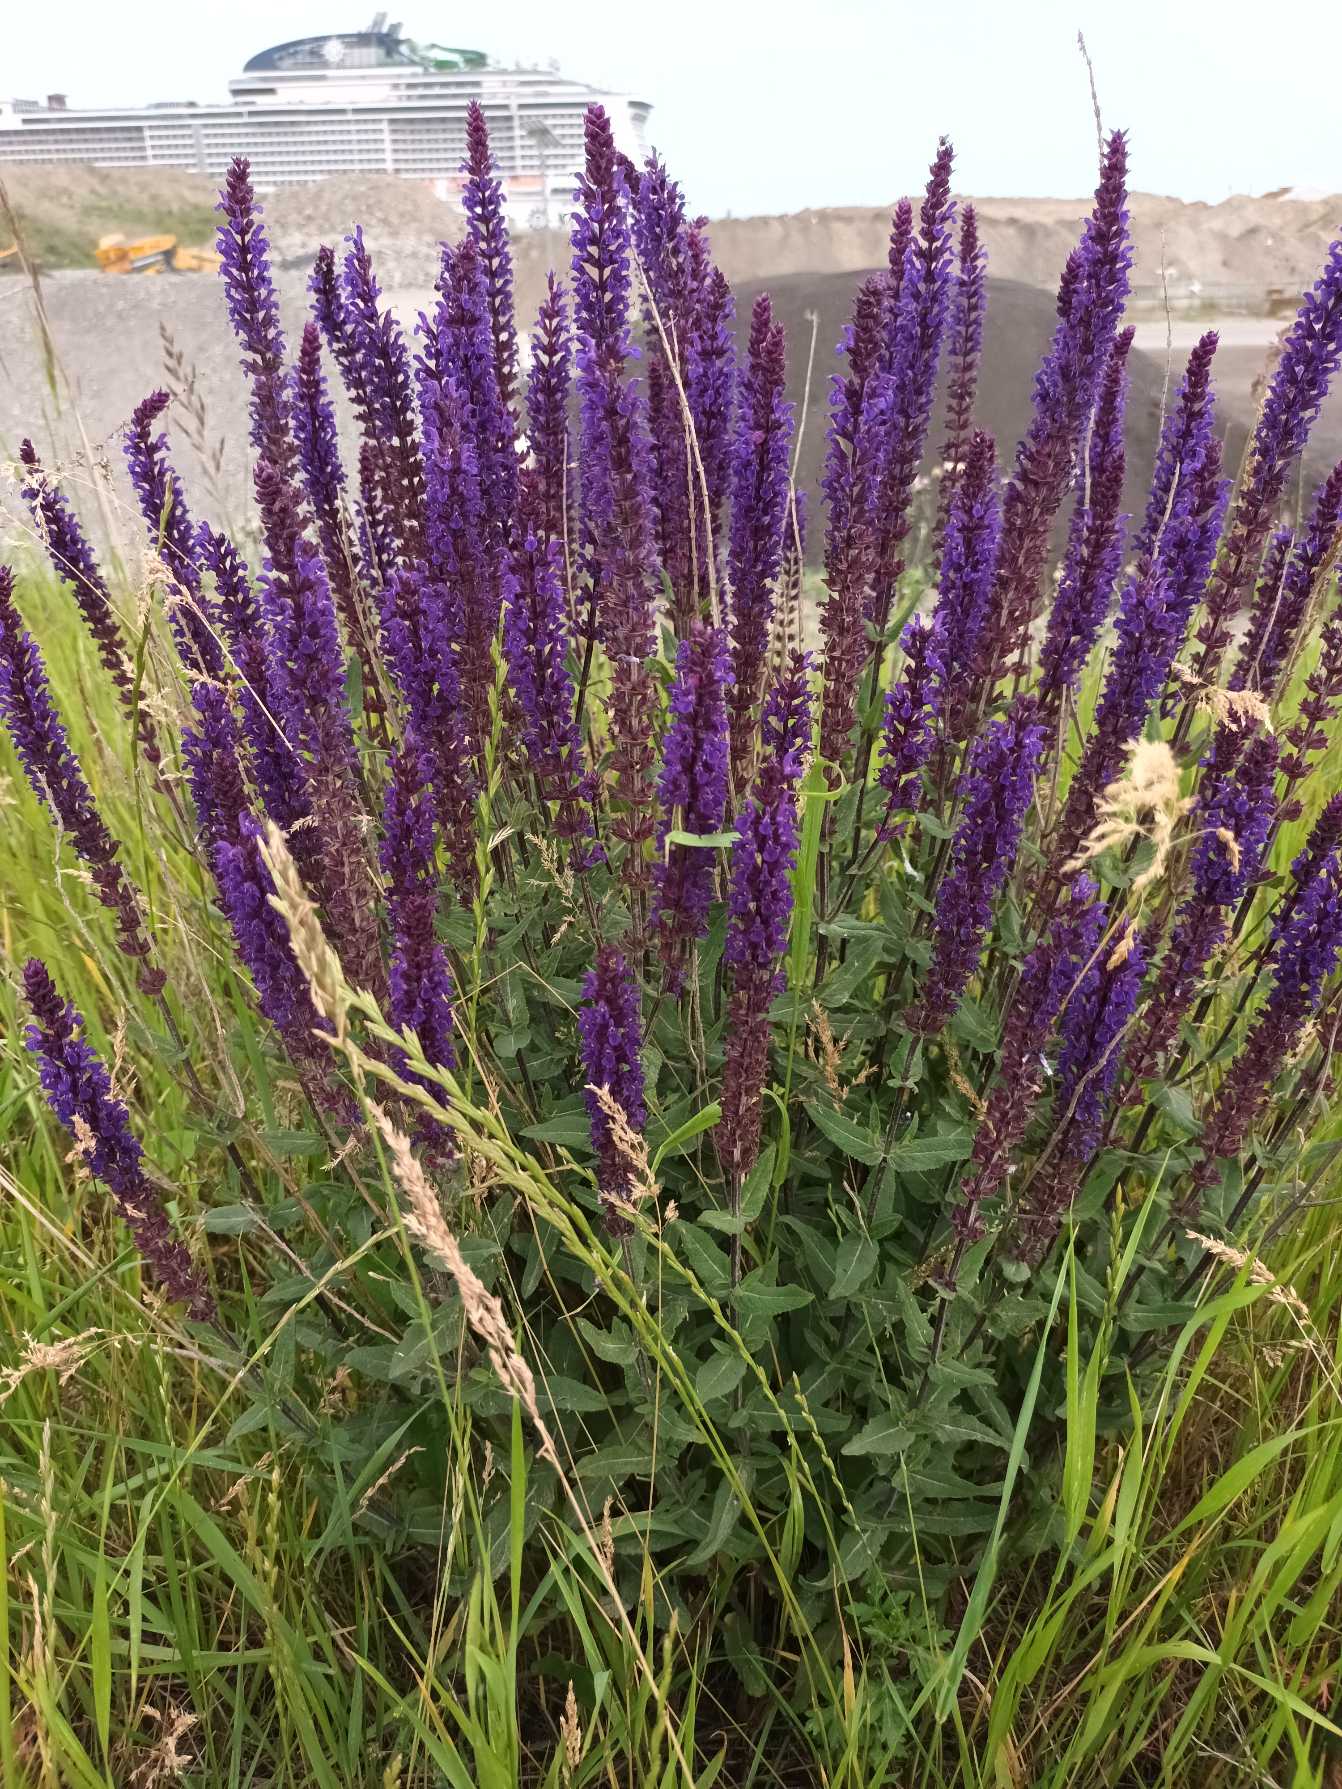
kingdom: Plantae
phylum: Tracheophyta
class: Magnoliopsida
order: Lamiales
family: Lamiaceae
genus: Salvia
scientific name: Salvia nemorosa
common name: Småblomstret salvie
